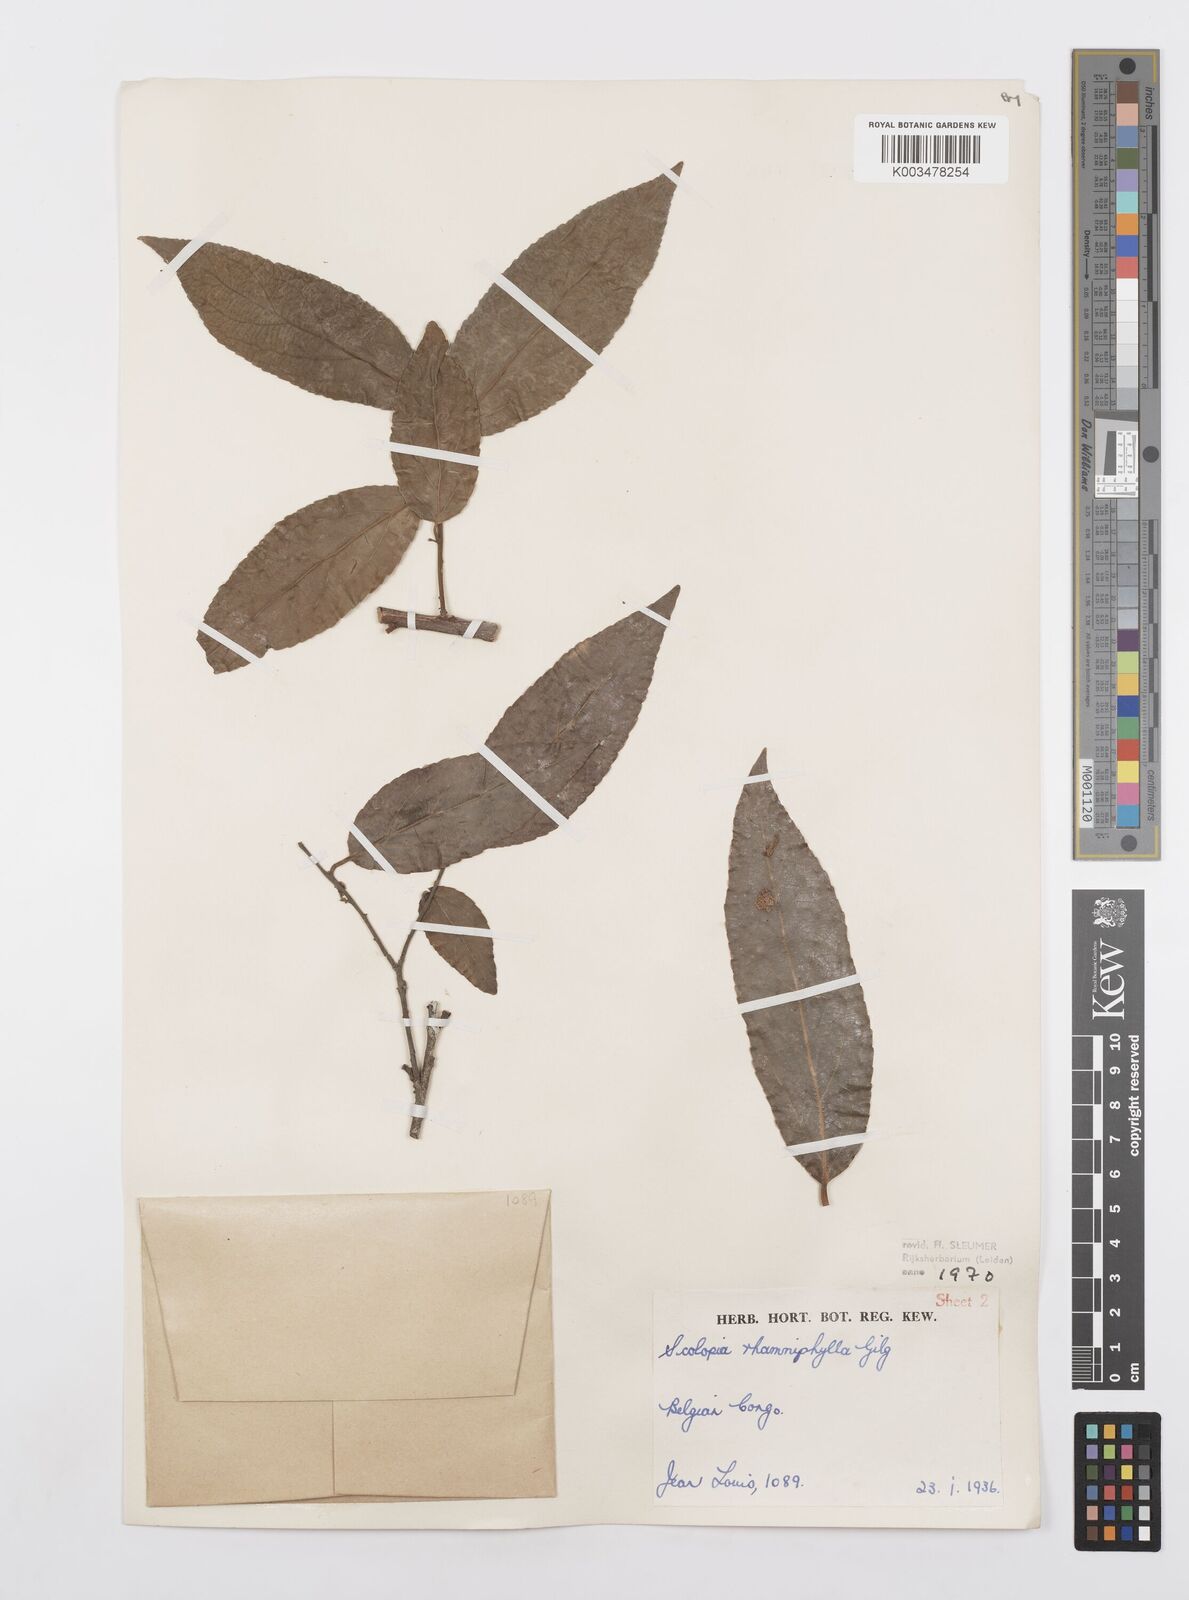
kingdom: Plantae
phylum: Tracheophyta
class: Magnoliopsida
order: Malpighiales
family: Salicaceae
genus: Scolopia
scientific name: Scolopia rhamniphylla
